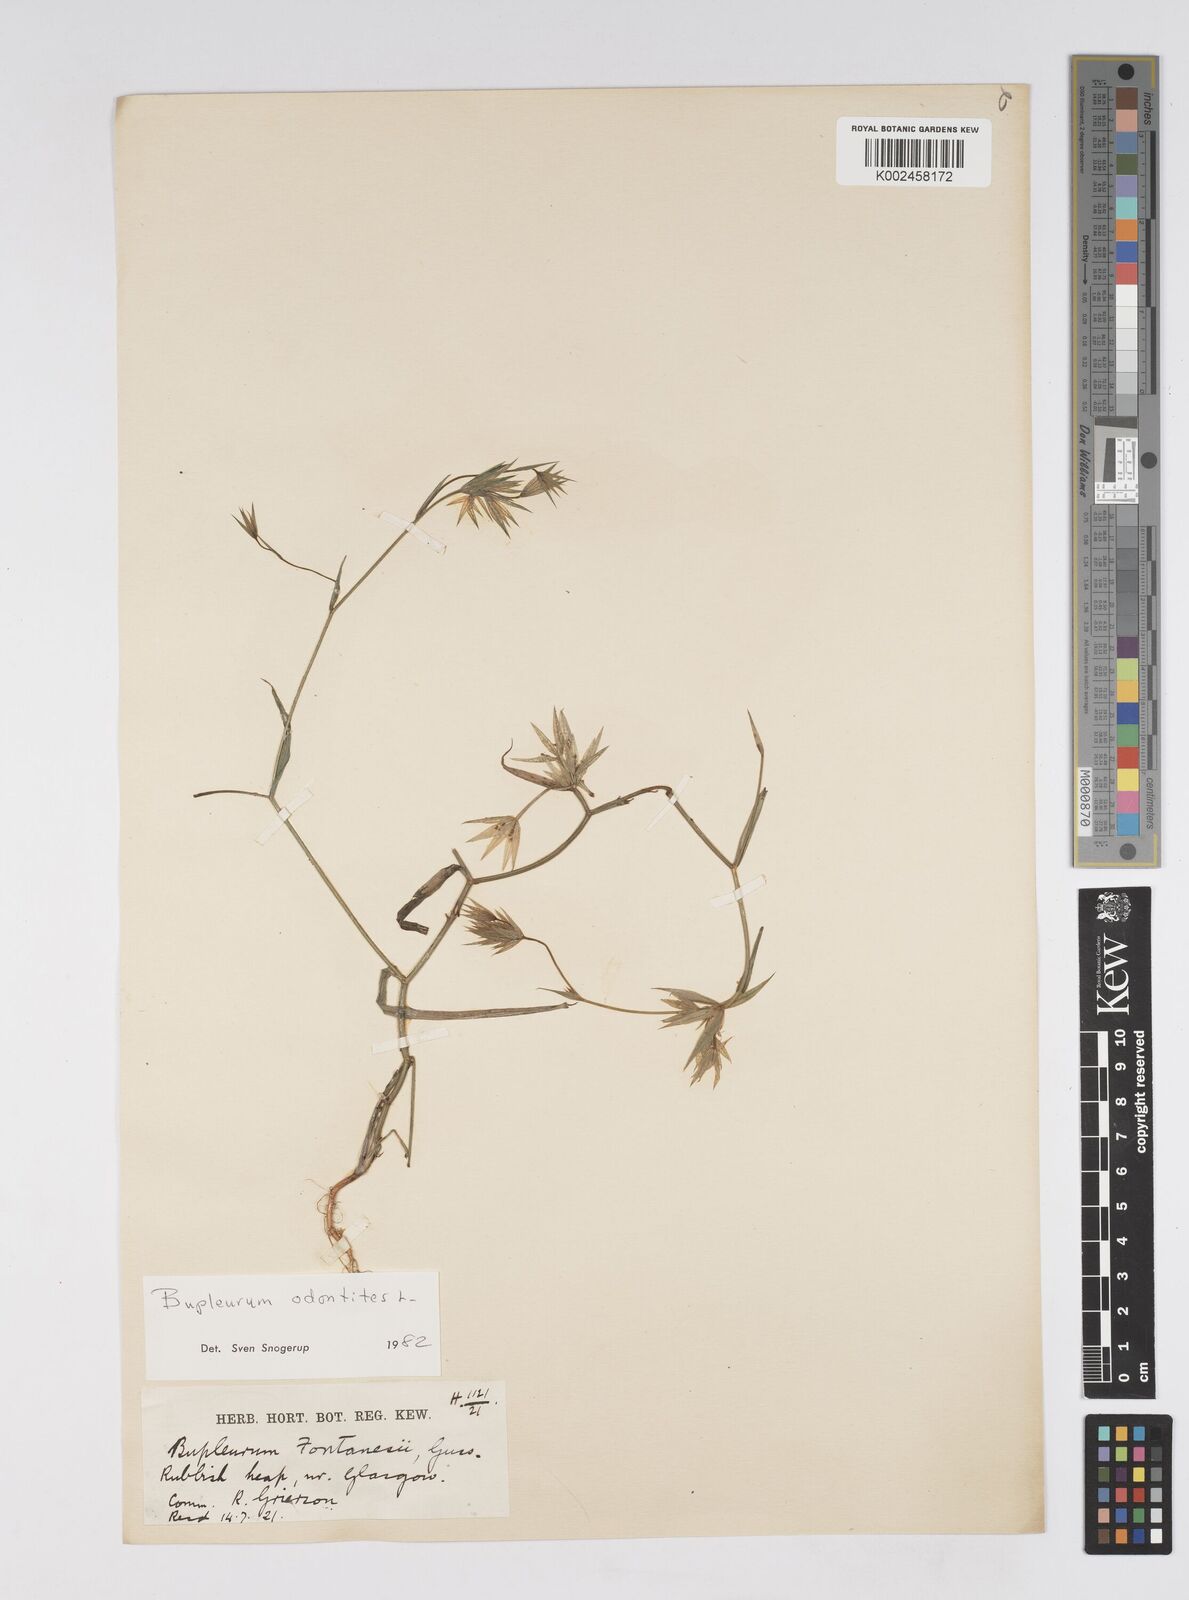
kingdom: Plantae
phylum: Tracheophyta
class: Magnoliopsida
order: Apiales
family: Apiaceae
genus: Bupleurum
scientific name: Bupleurum odontites
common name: Narrowleaf thorow wax
